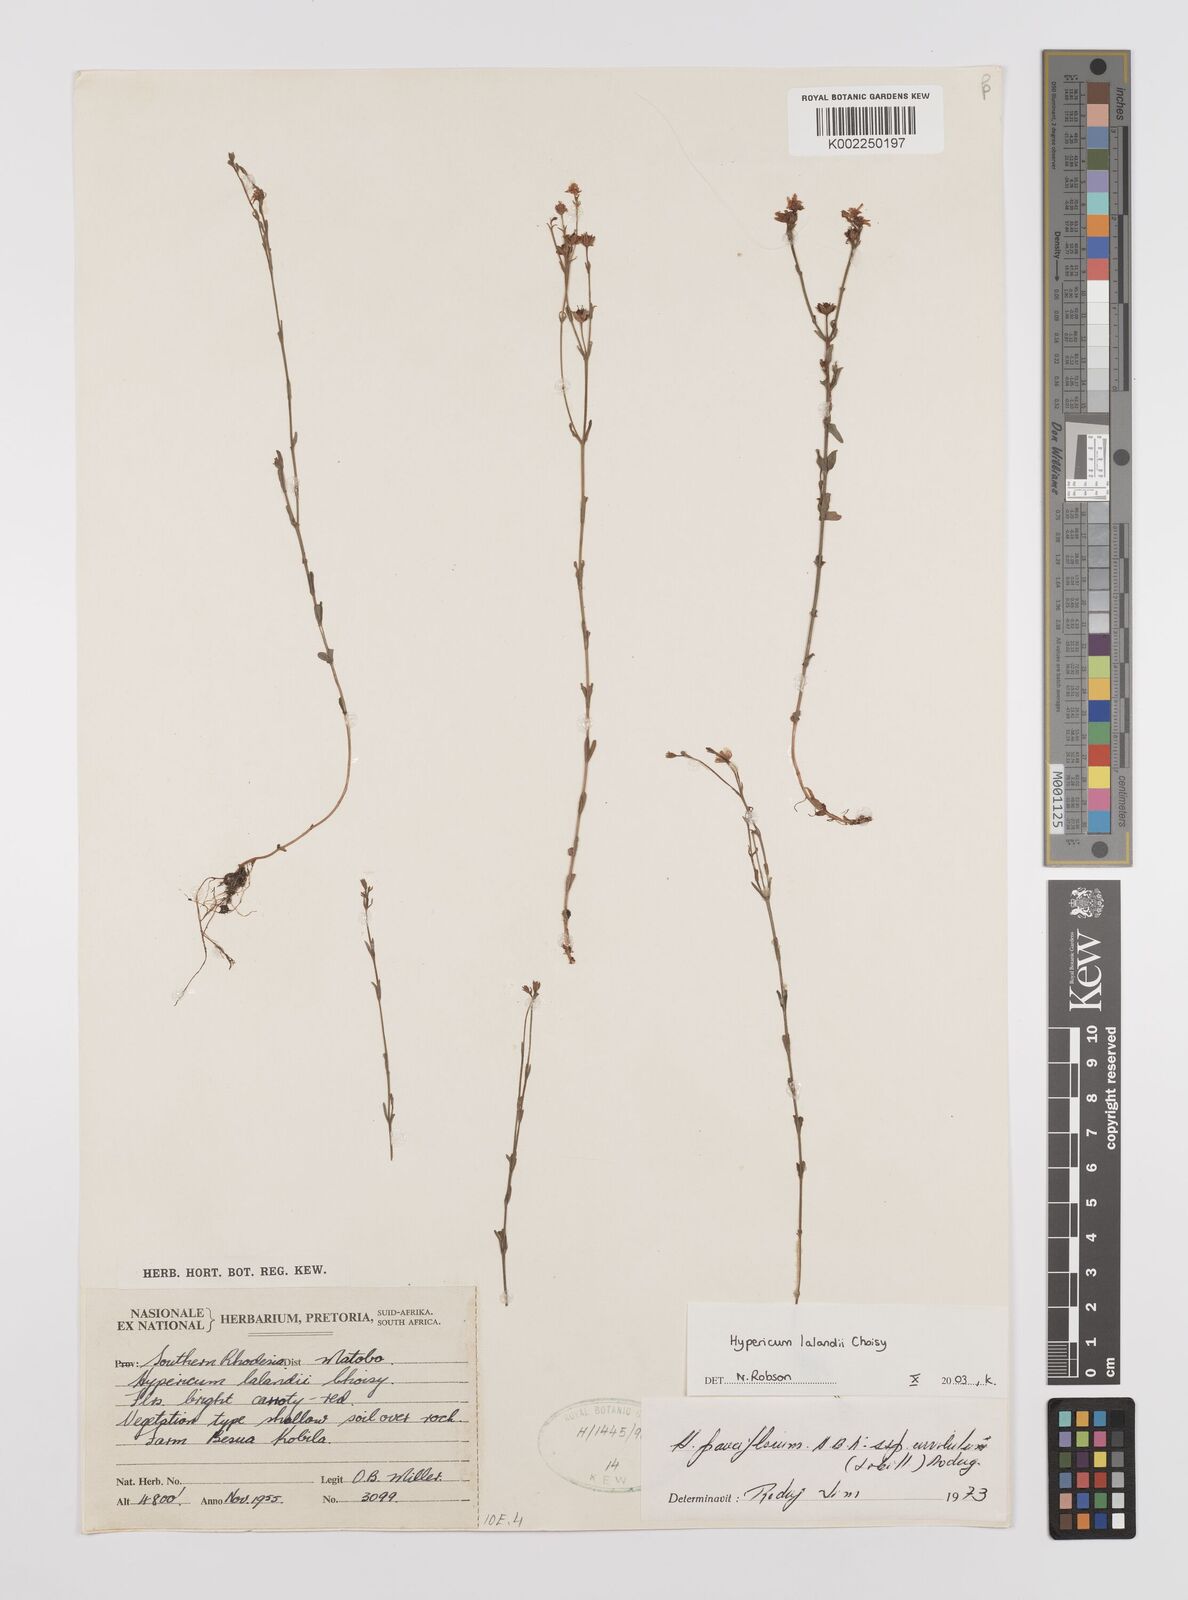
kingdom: Plantae
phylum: Tracheophyta
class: Magnoliopsida
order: Malpighiales
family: Hypericaceae
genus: Hypericum
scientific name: Hypericum lalandii
